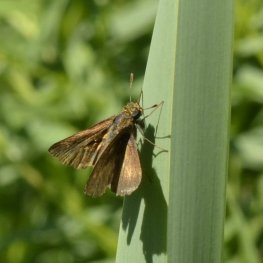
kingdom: Animalia
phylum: Arthropoda
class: Insecta
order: Lepidoptera
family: Hesperiidae
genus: Polites
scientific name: Polites
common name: Crossline Skipper
